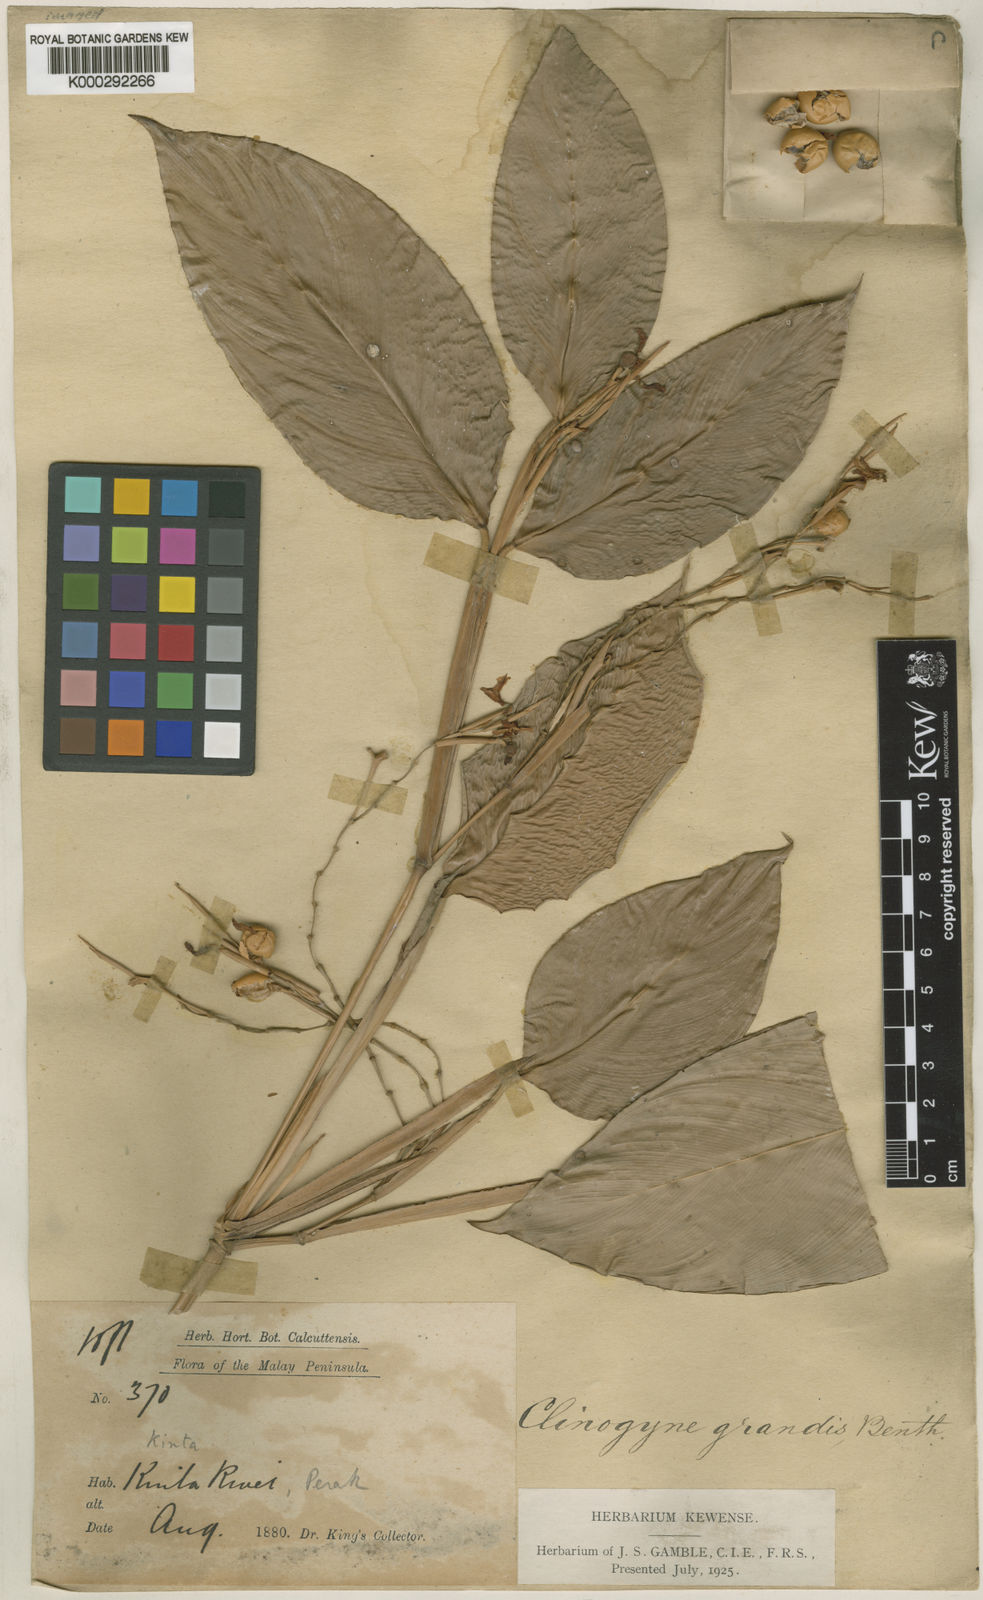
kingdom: Plantae
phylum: Tracheophyta
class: Liliopsida
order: Zingiberales
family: Marantaceae
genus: Donax
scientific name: Donax
